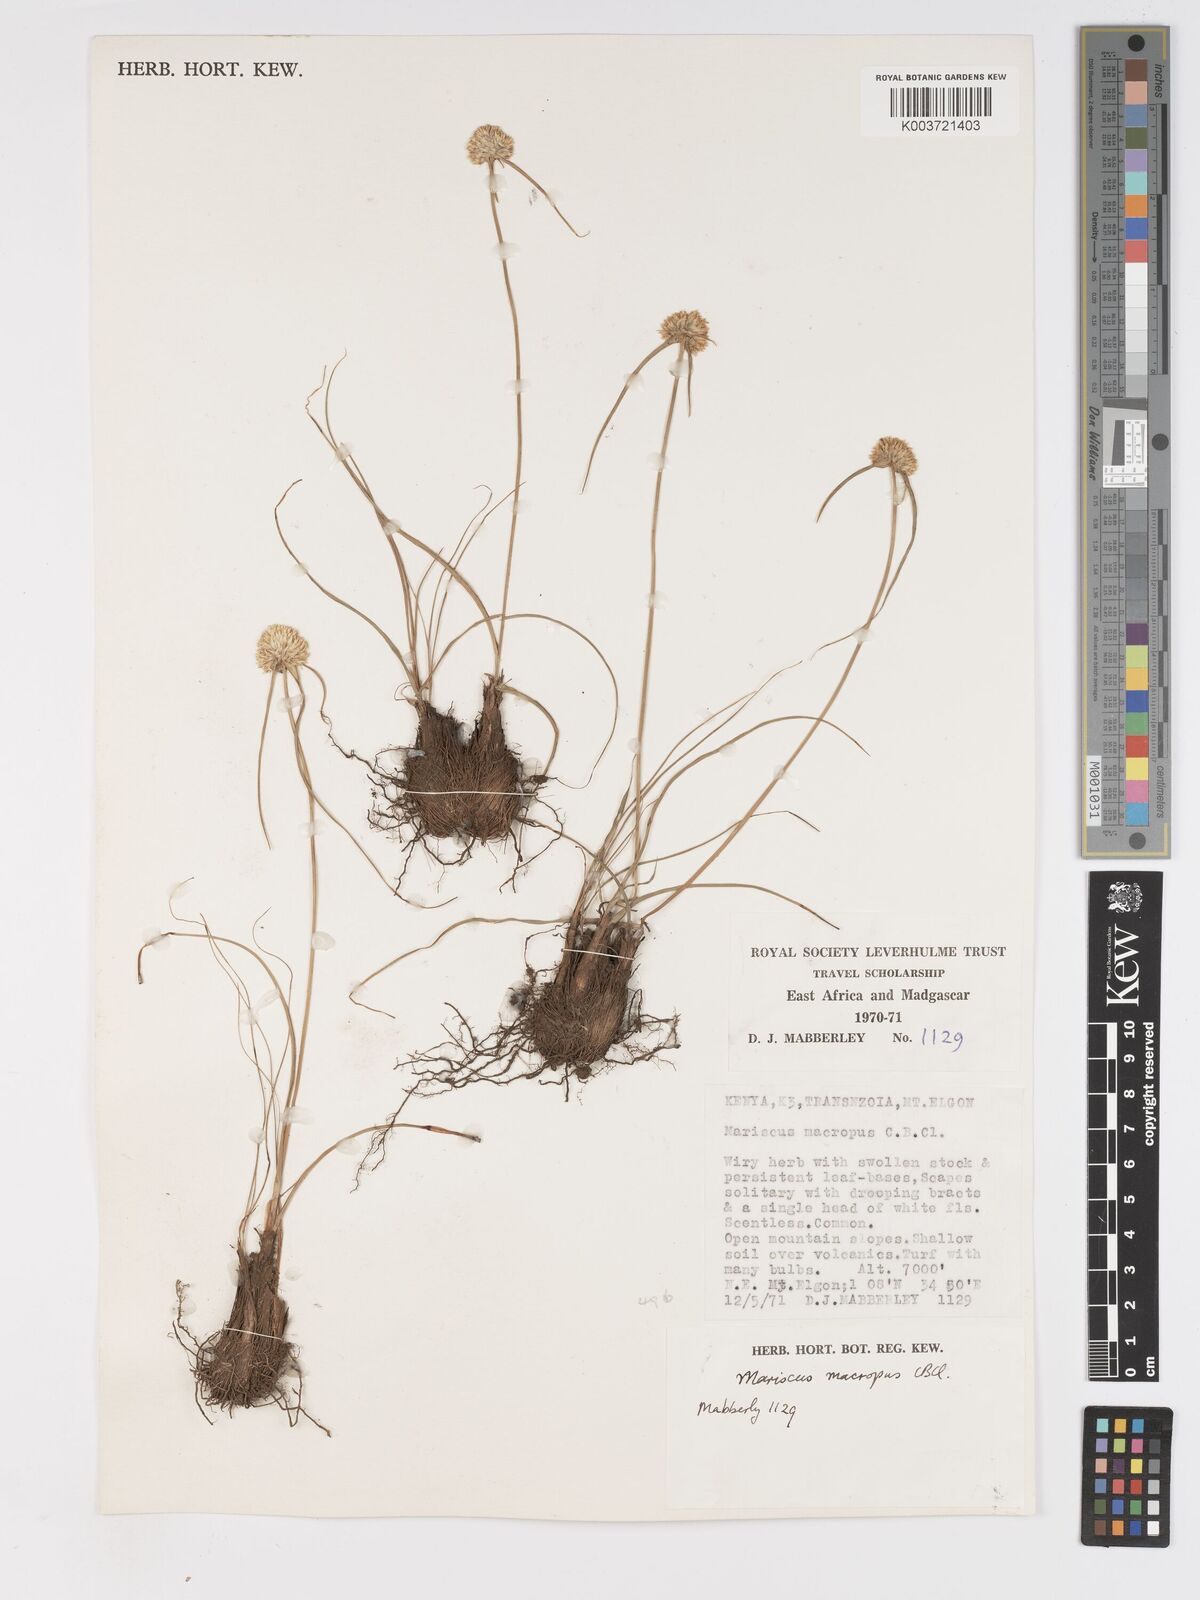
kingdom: Plantae
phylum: Tracheophyta
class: Liliopsida
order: Poales
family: Cyperaceae
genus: Cyperus
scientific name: Cyperus mollipes
